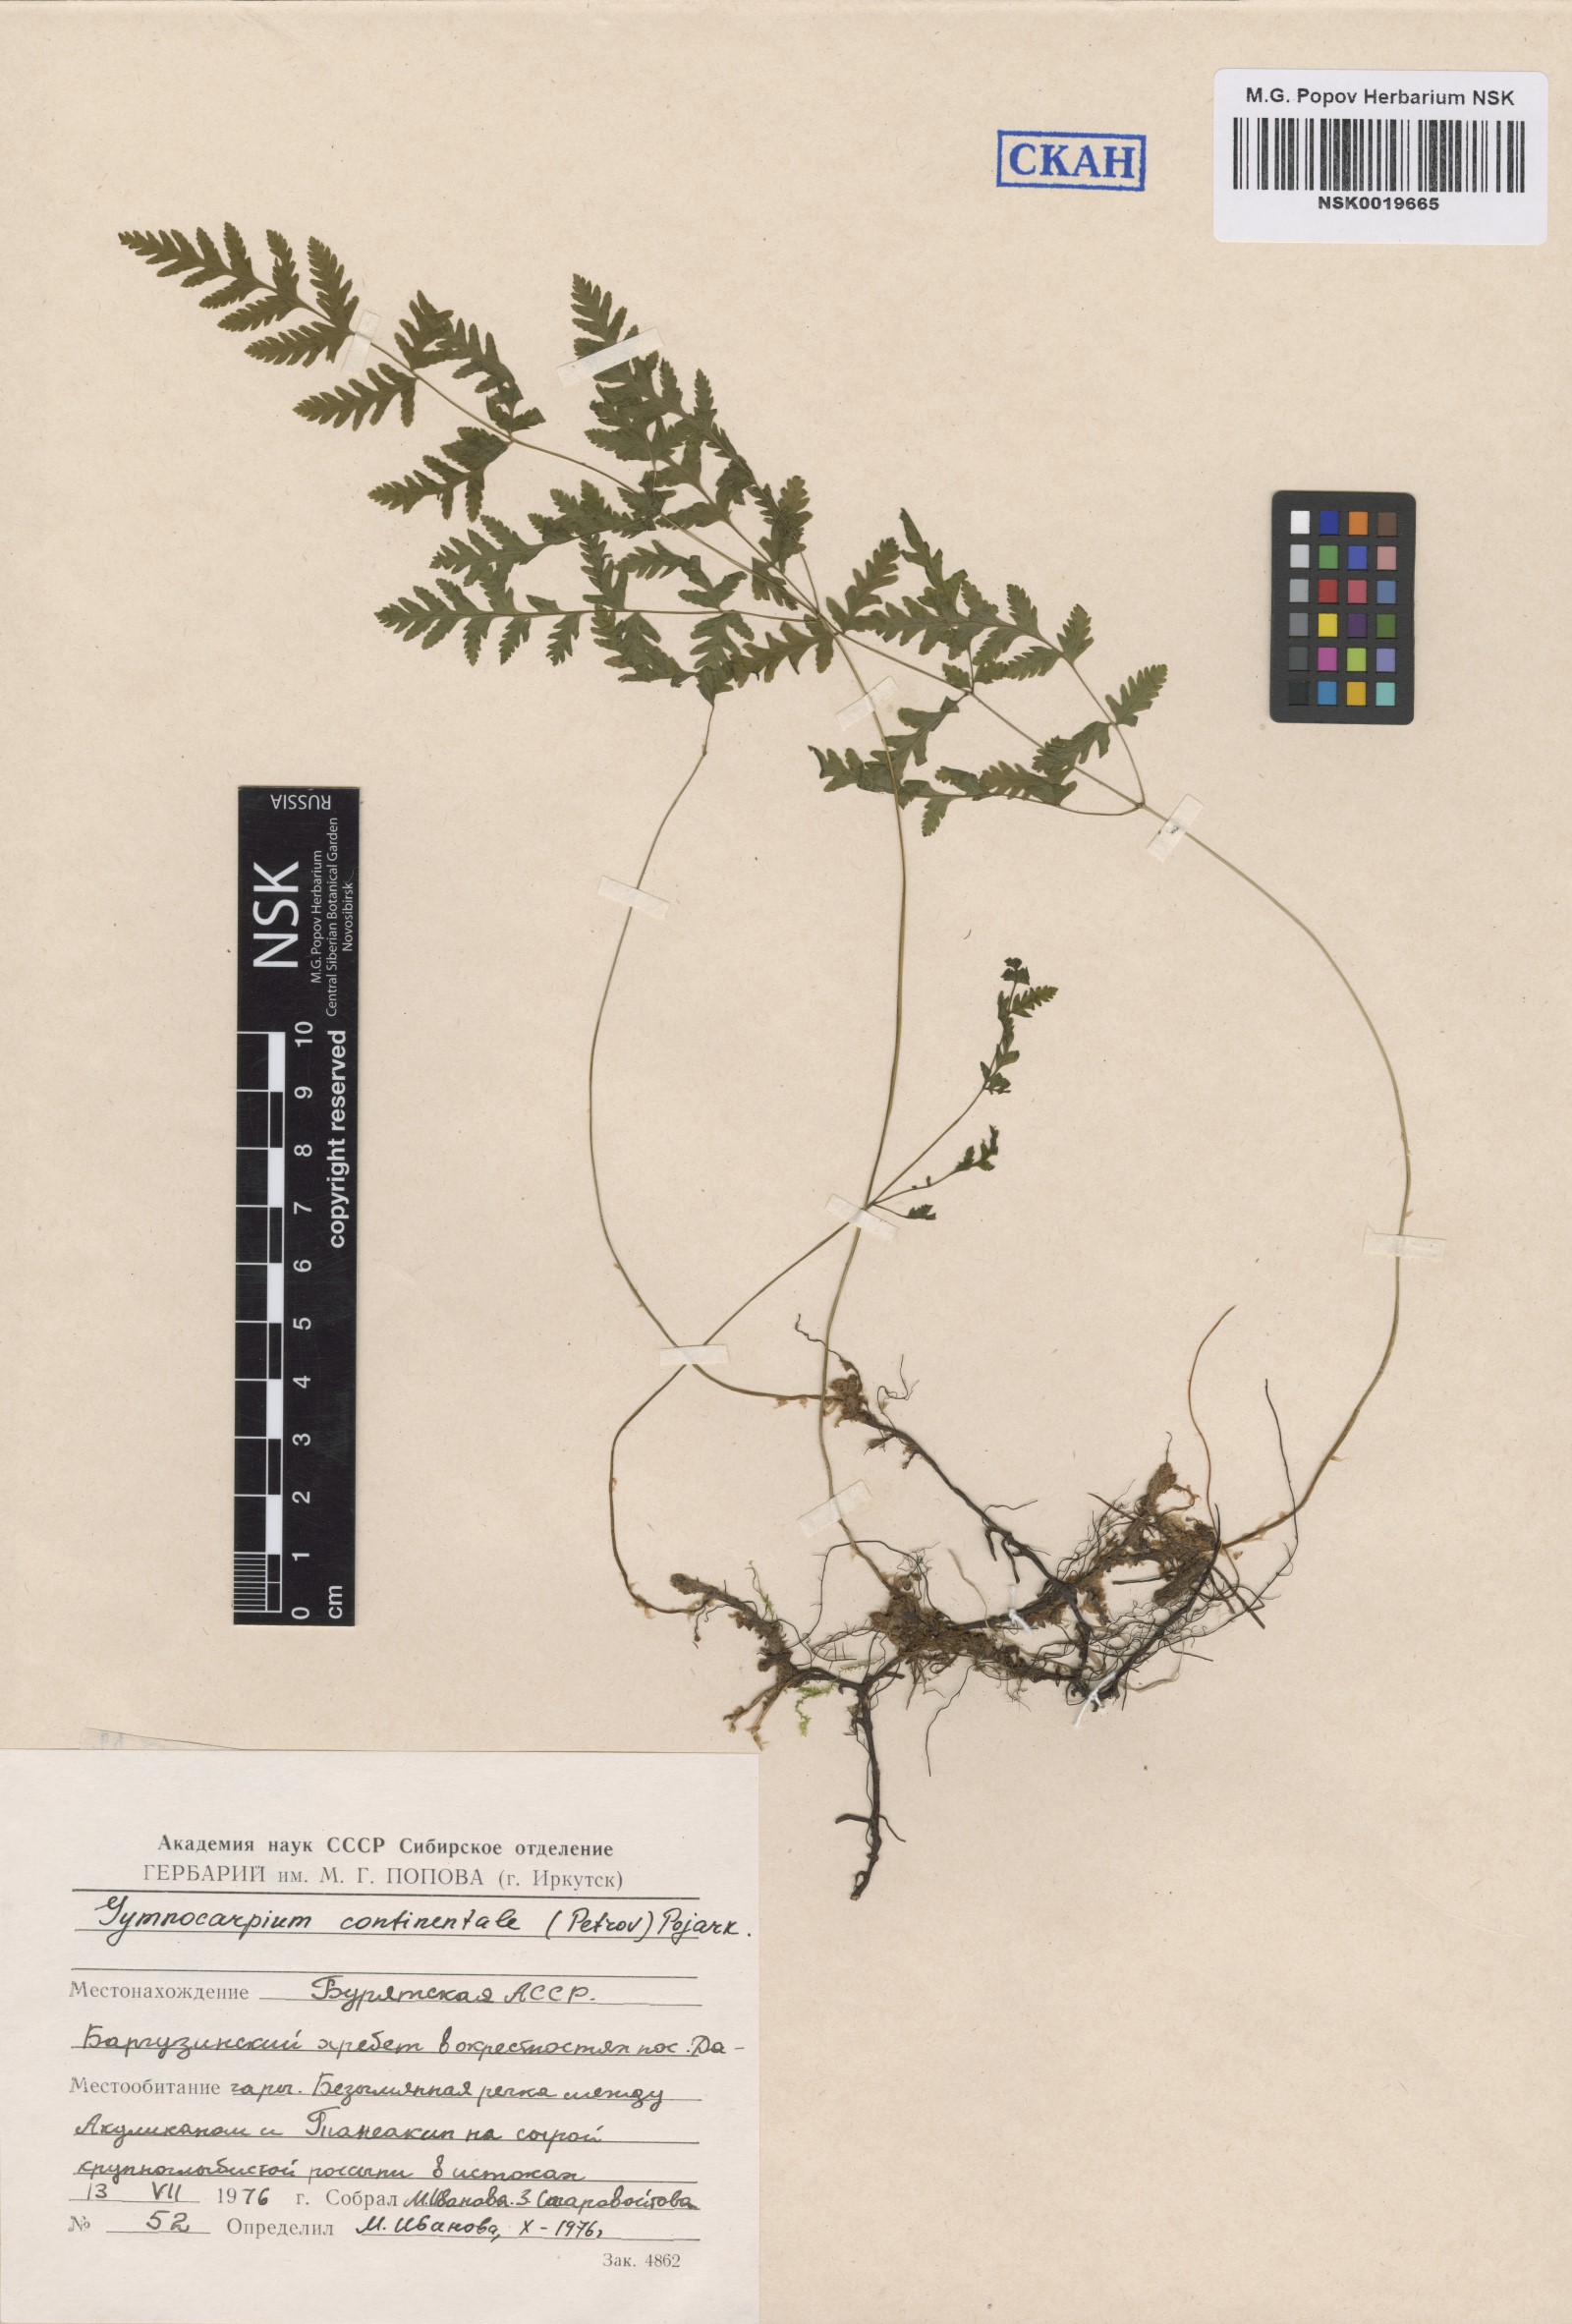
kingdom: Plantae
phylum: Tracheophyta
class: Polypodiopsida
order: Polypodiales
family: Cystopteridaceae
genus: Gymnocarpium
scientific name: Gymnocarpium continentale
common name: Asian oak fern
